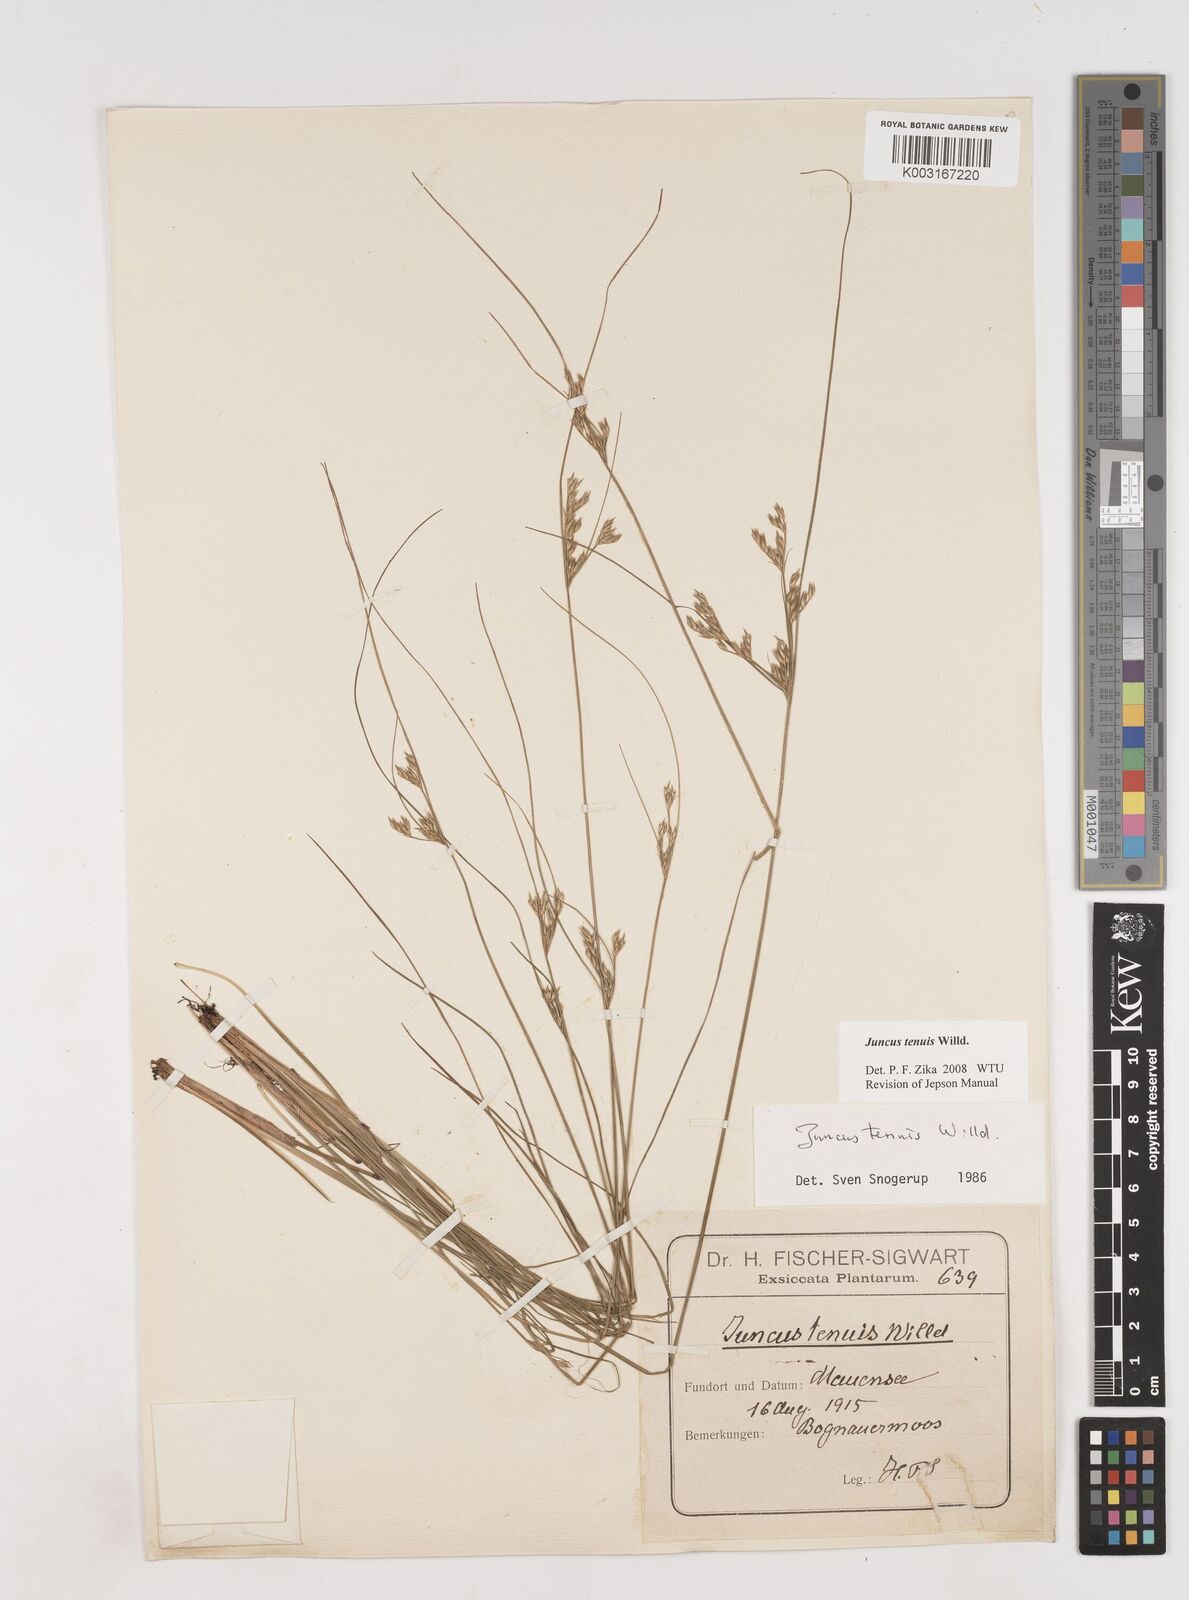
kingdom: Plantae
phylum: Tracheophyta
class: Liliopsida
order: Poales
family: Juncaceae
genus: Juncus
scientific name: Juncus tenuis
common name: Slender rush
